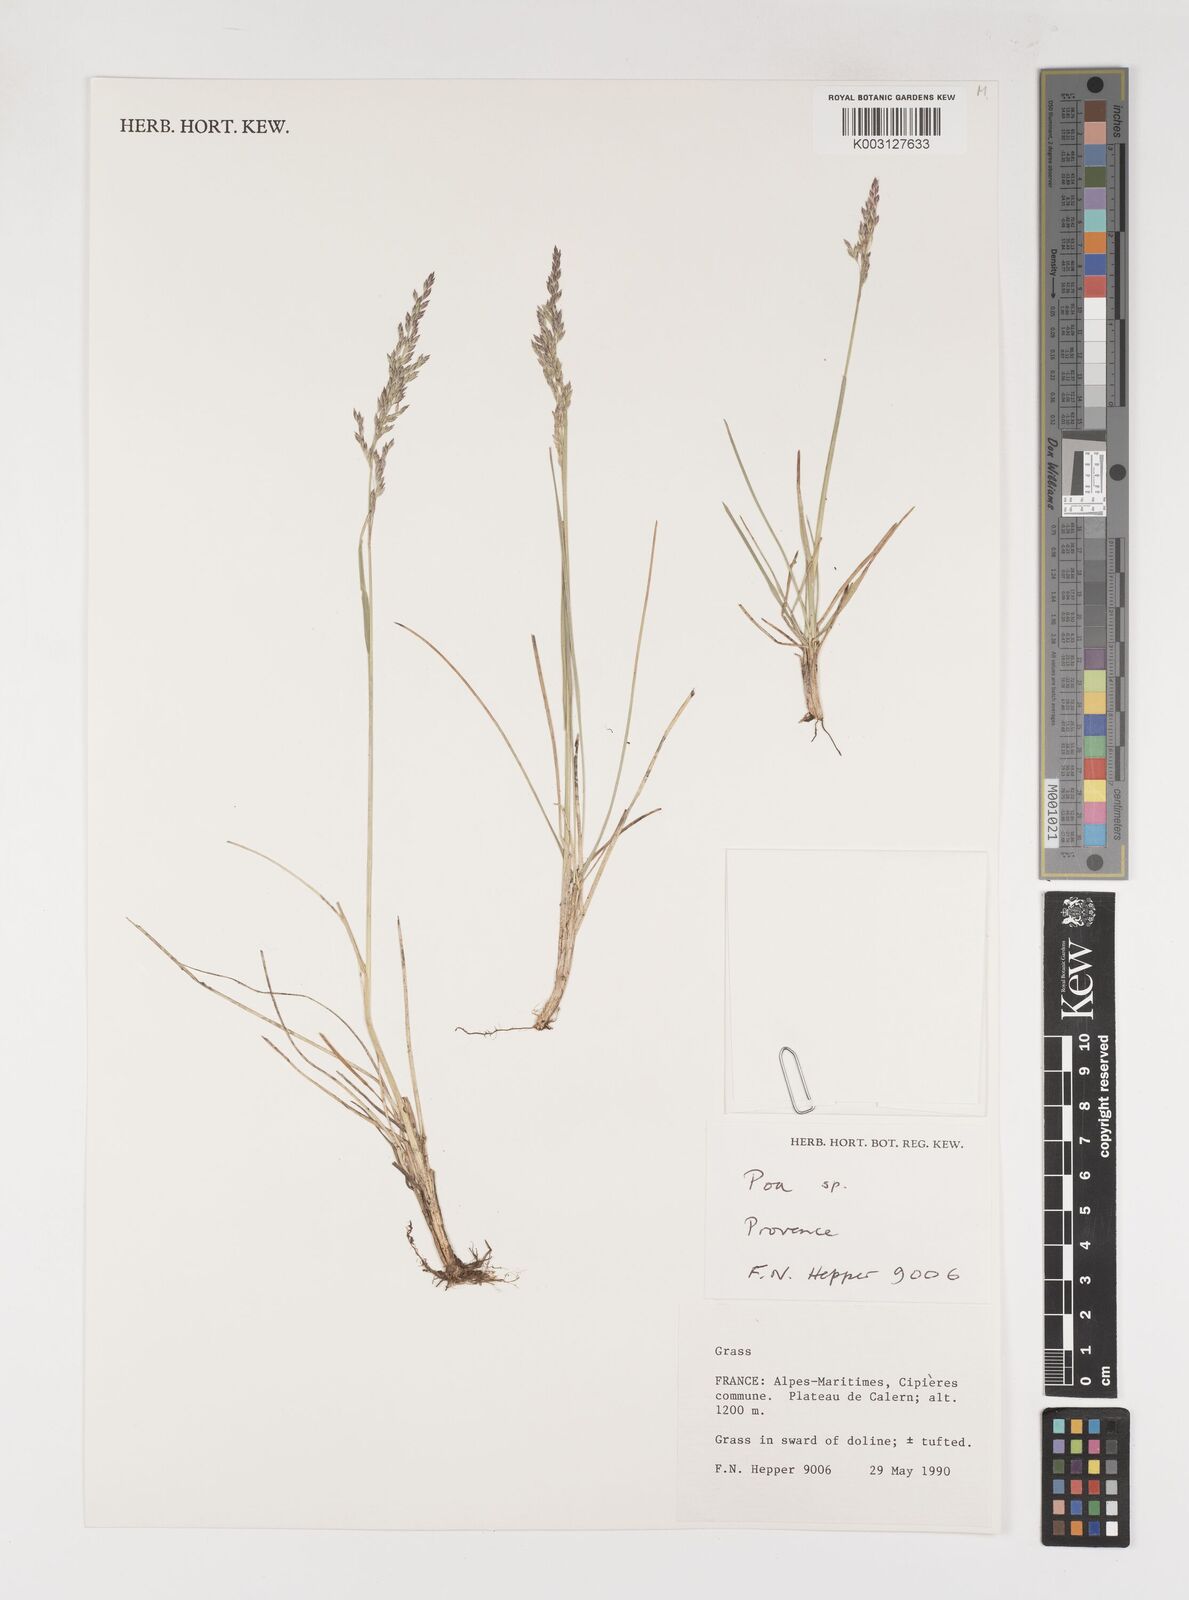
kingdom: Plantae
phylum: Tracheophyta
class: Liliopsida
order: Poales
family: Poaceae
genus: Poa
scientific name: Poa
